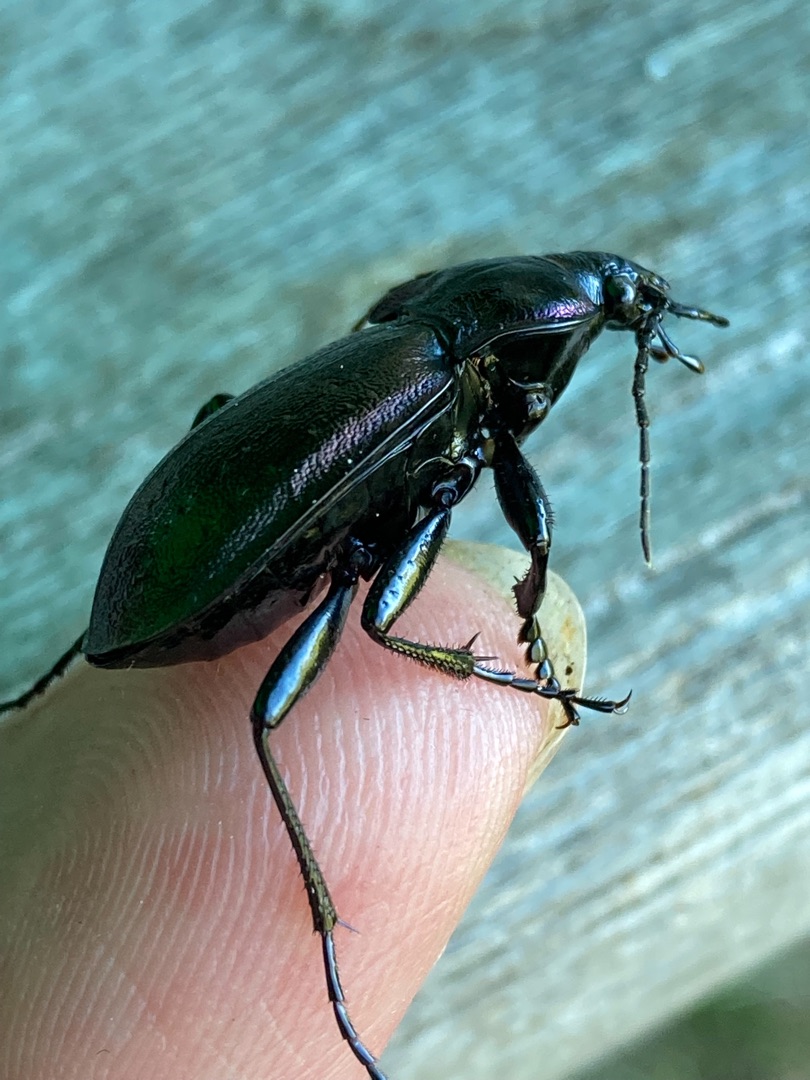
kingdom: Animalia
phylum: Arthropoda
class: Insecta
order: Coleoptera
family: Carabidae
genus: Carabus
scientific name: Carabus nemoralis
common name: Kratløber
